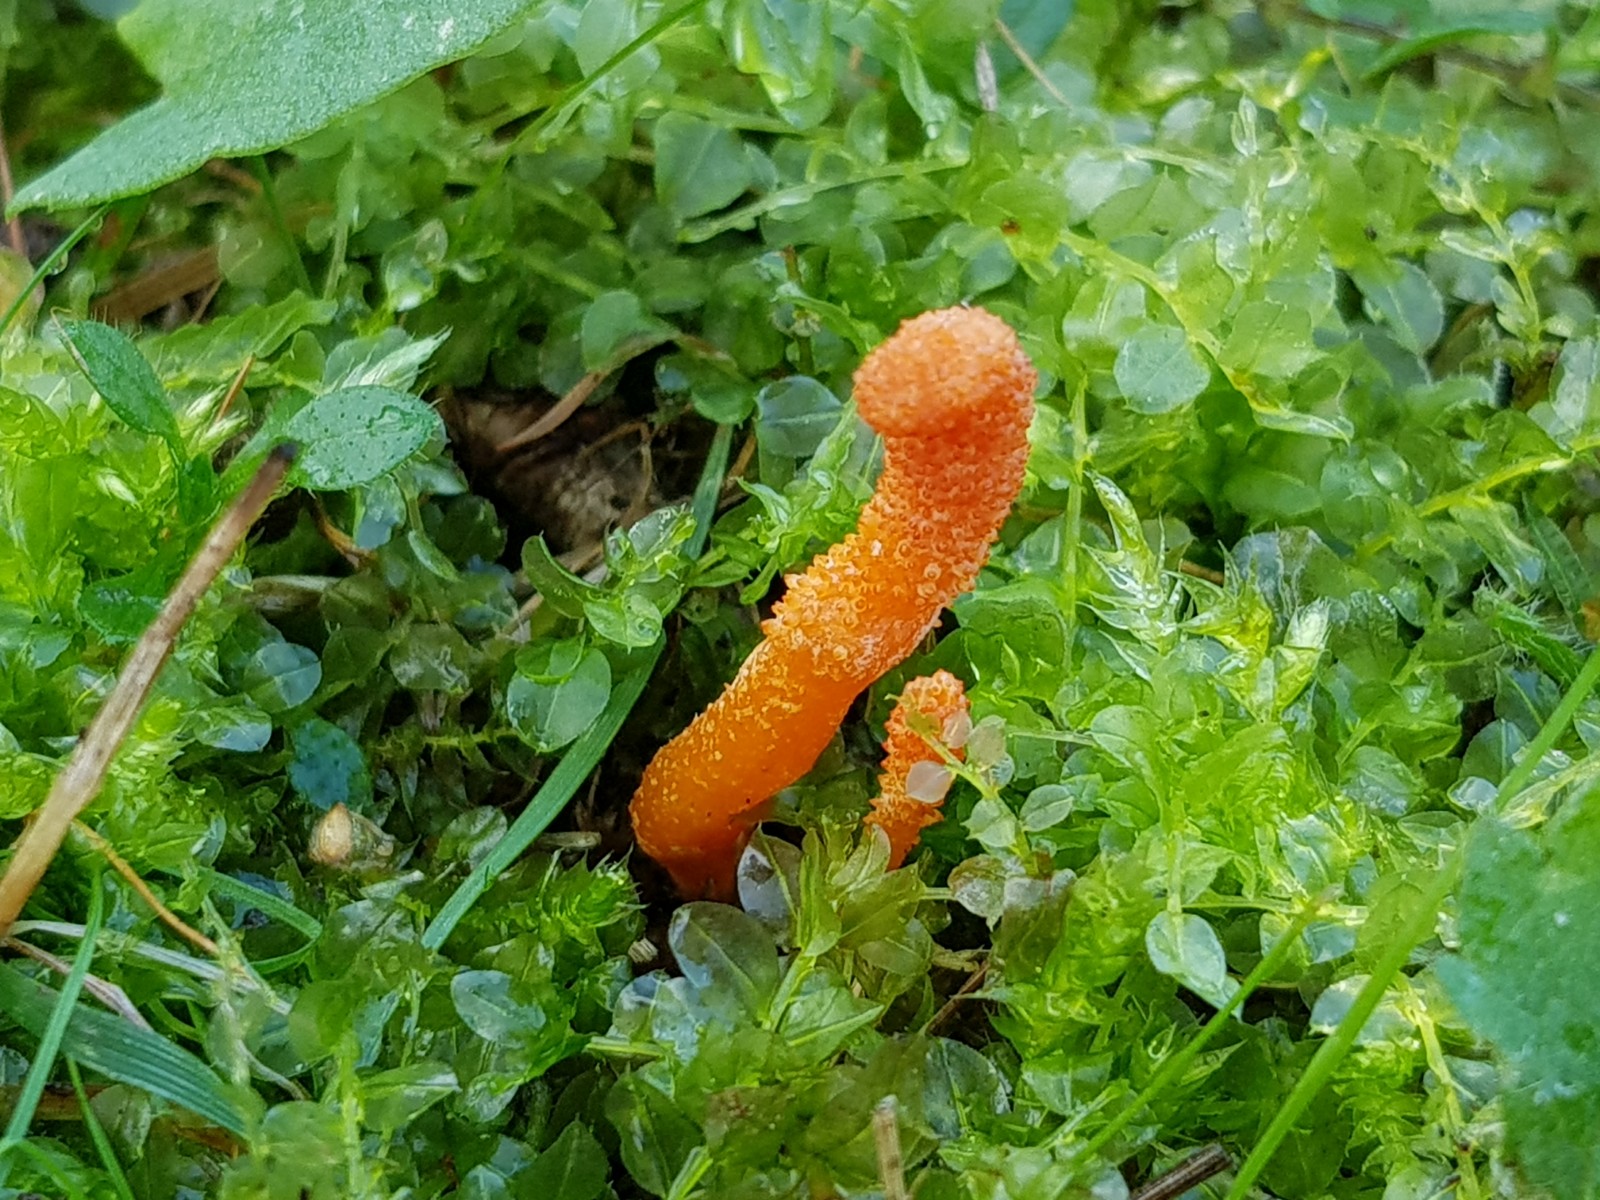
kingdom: Fungi
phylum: Ascomycota
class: Sordariomycetes
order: Hypocreales
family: Cordycipitaceae
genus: Cordyceps
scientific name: Cordyceps militaris
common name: puppe-snyltekølle
